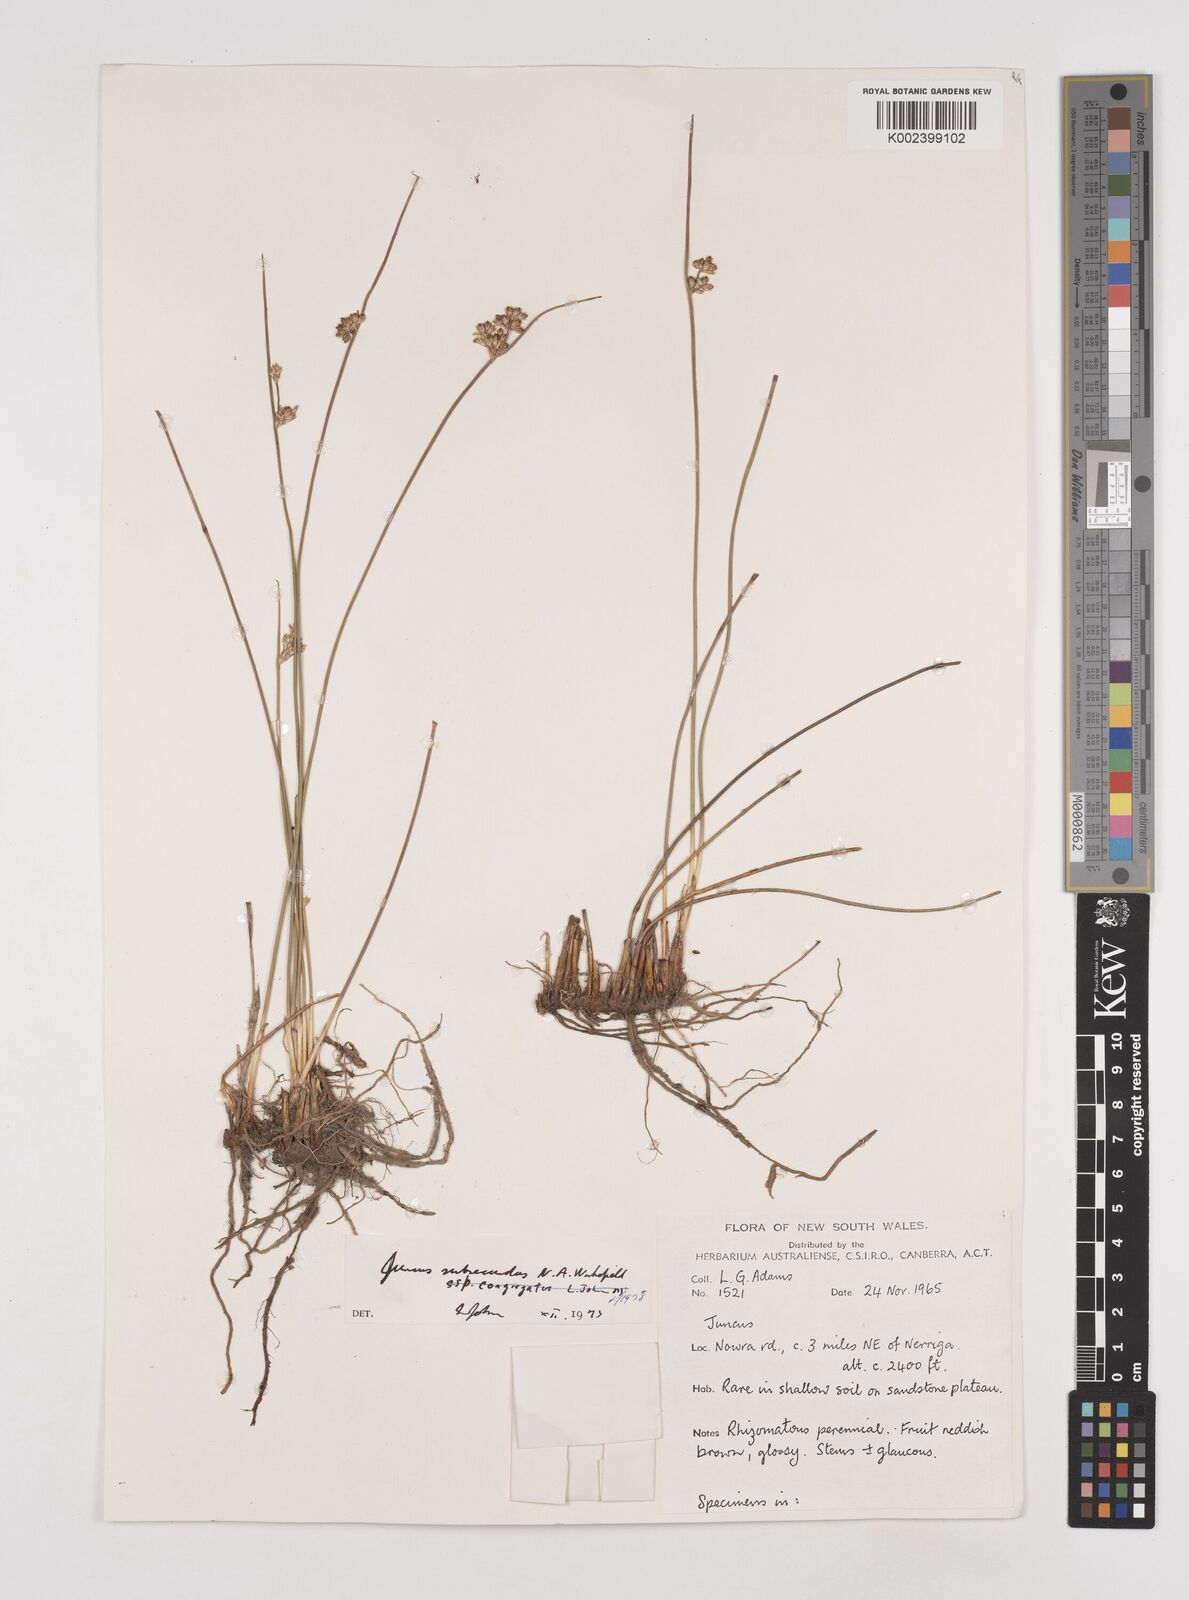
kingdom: Plantae
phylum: Tracheophyta
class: Liliopsida
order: Poales
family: Juncaceae
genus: Juncus
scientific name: Juncus subsecundus
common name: Fingered rush
